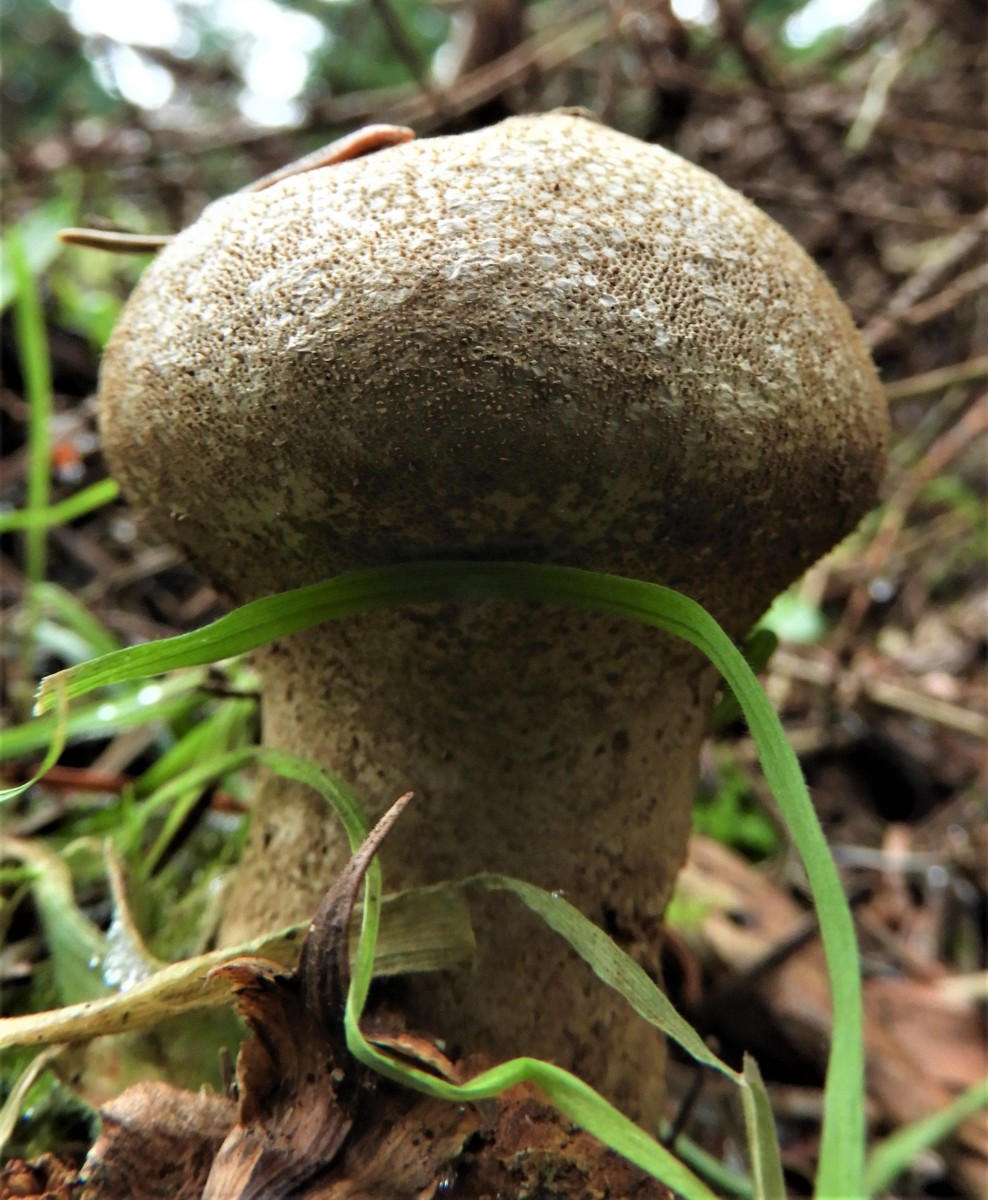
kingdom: Fungi
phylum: Basidiomycota
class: Agaricomycetes
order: Agaricales
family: Lycoperdaceae
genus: Lycoperdon
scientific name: Lycoperdon perlatum
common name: krystal-støvbold
